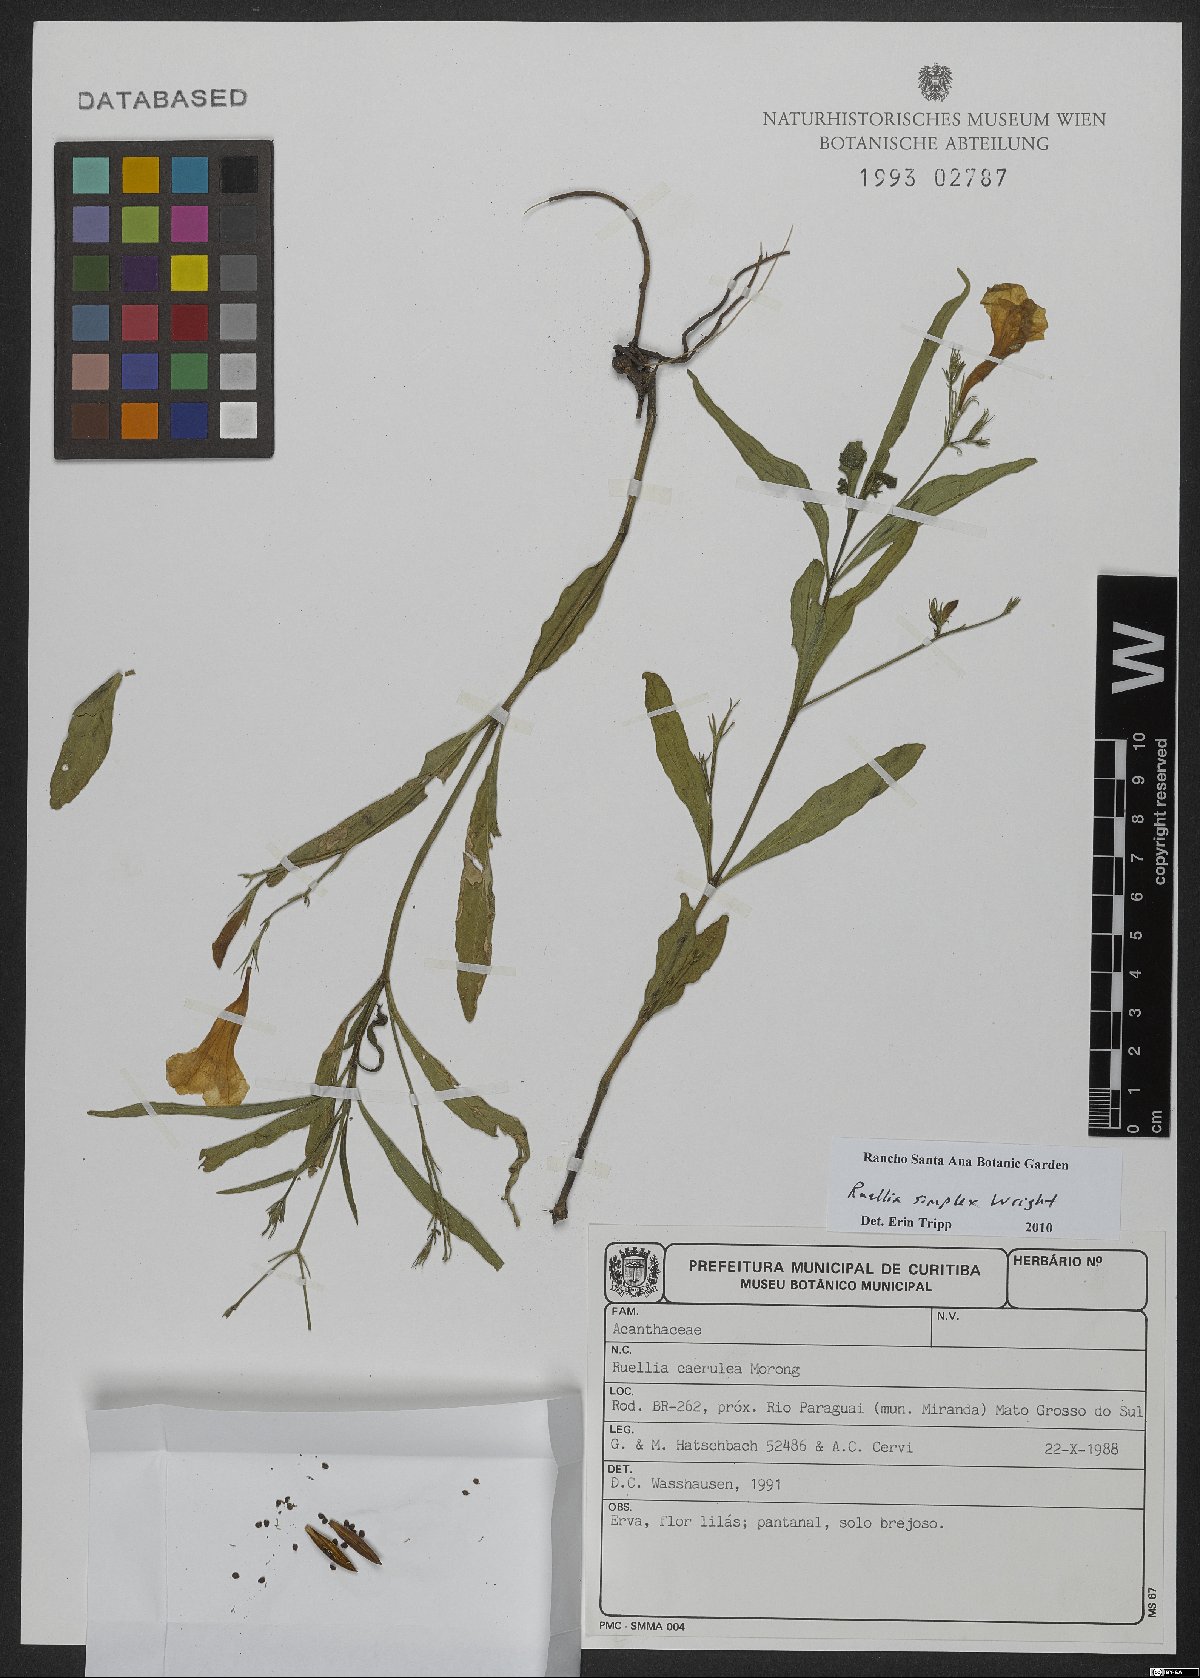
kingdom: Plantae
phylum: Tracheophyta
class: Magnoliopsida
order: Lamiales
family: Acanthaceae
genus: Ruellia
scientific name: Ruellia simplex
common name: Softseed wild petunia
